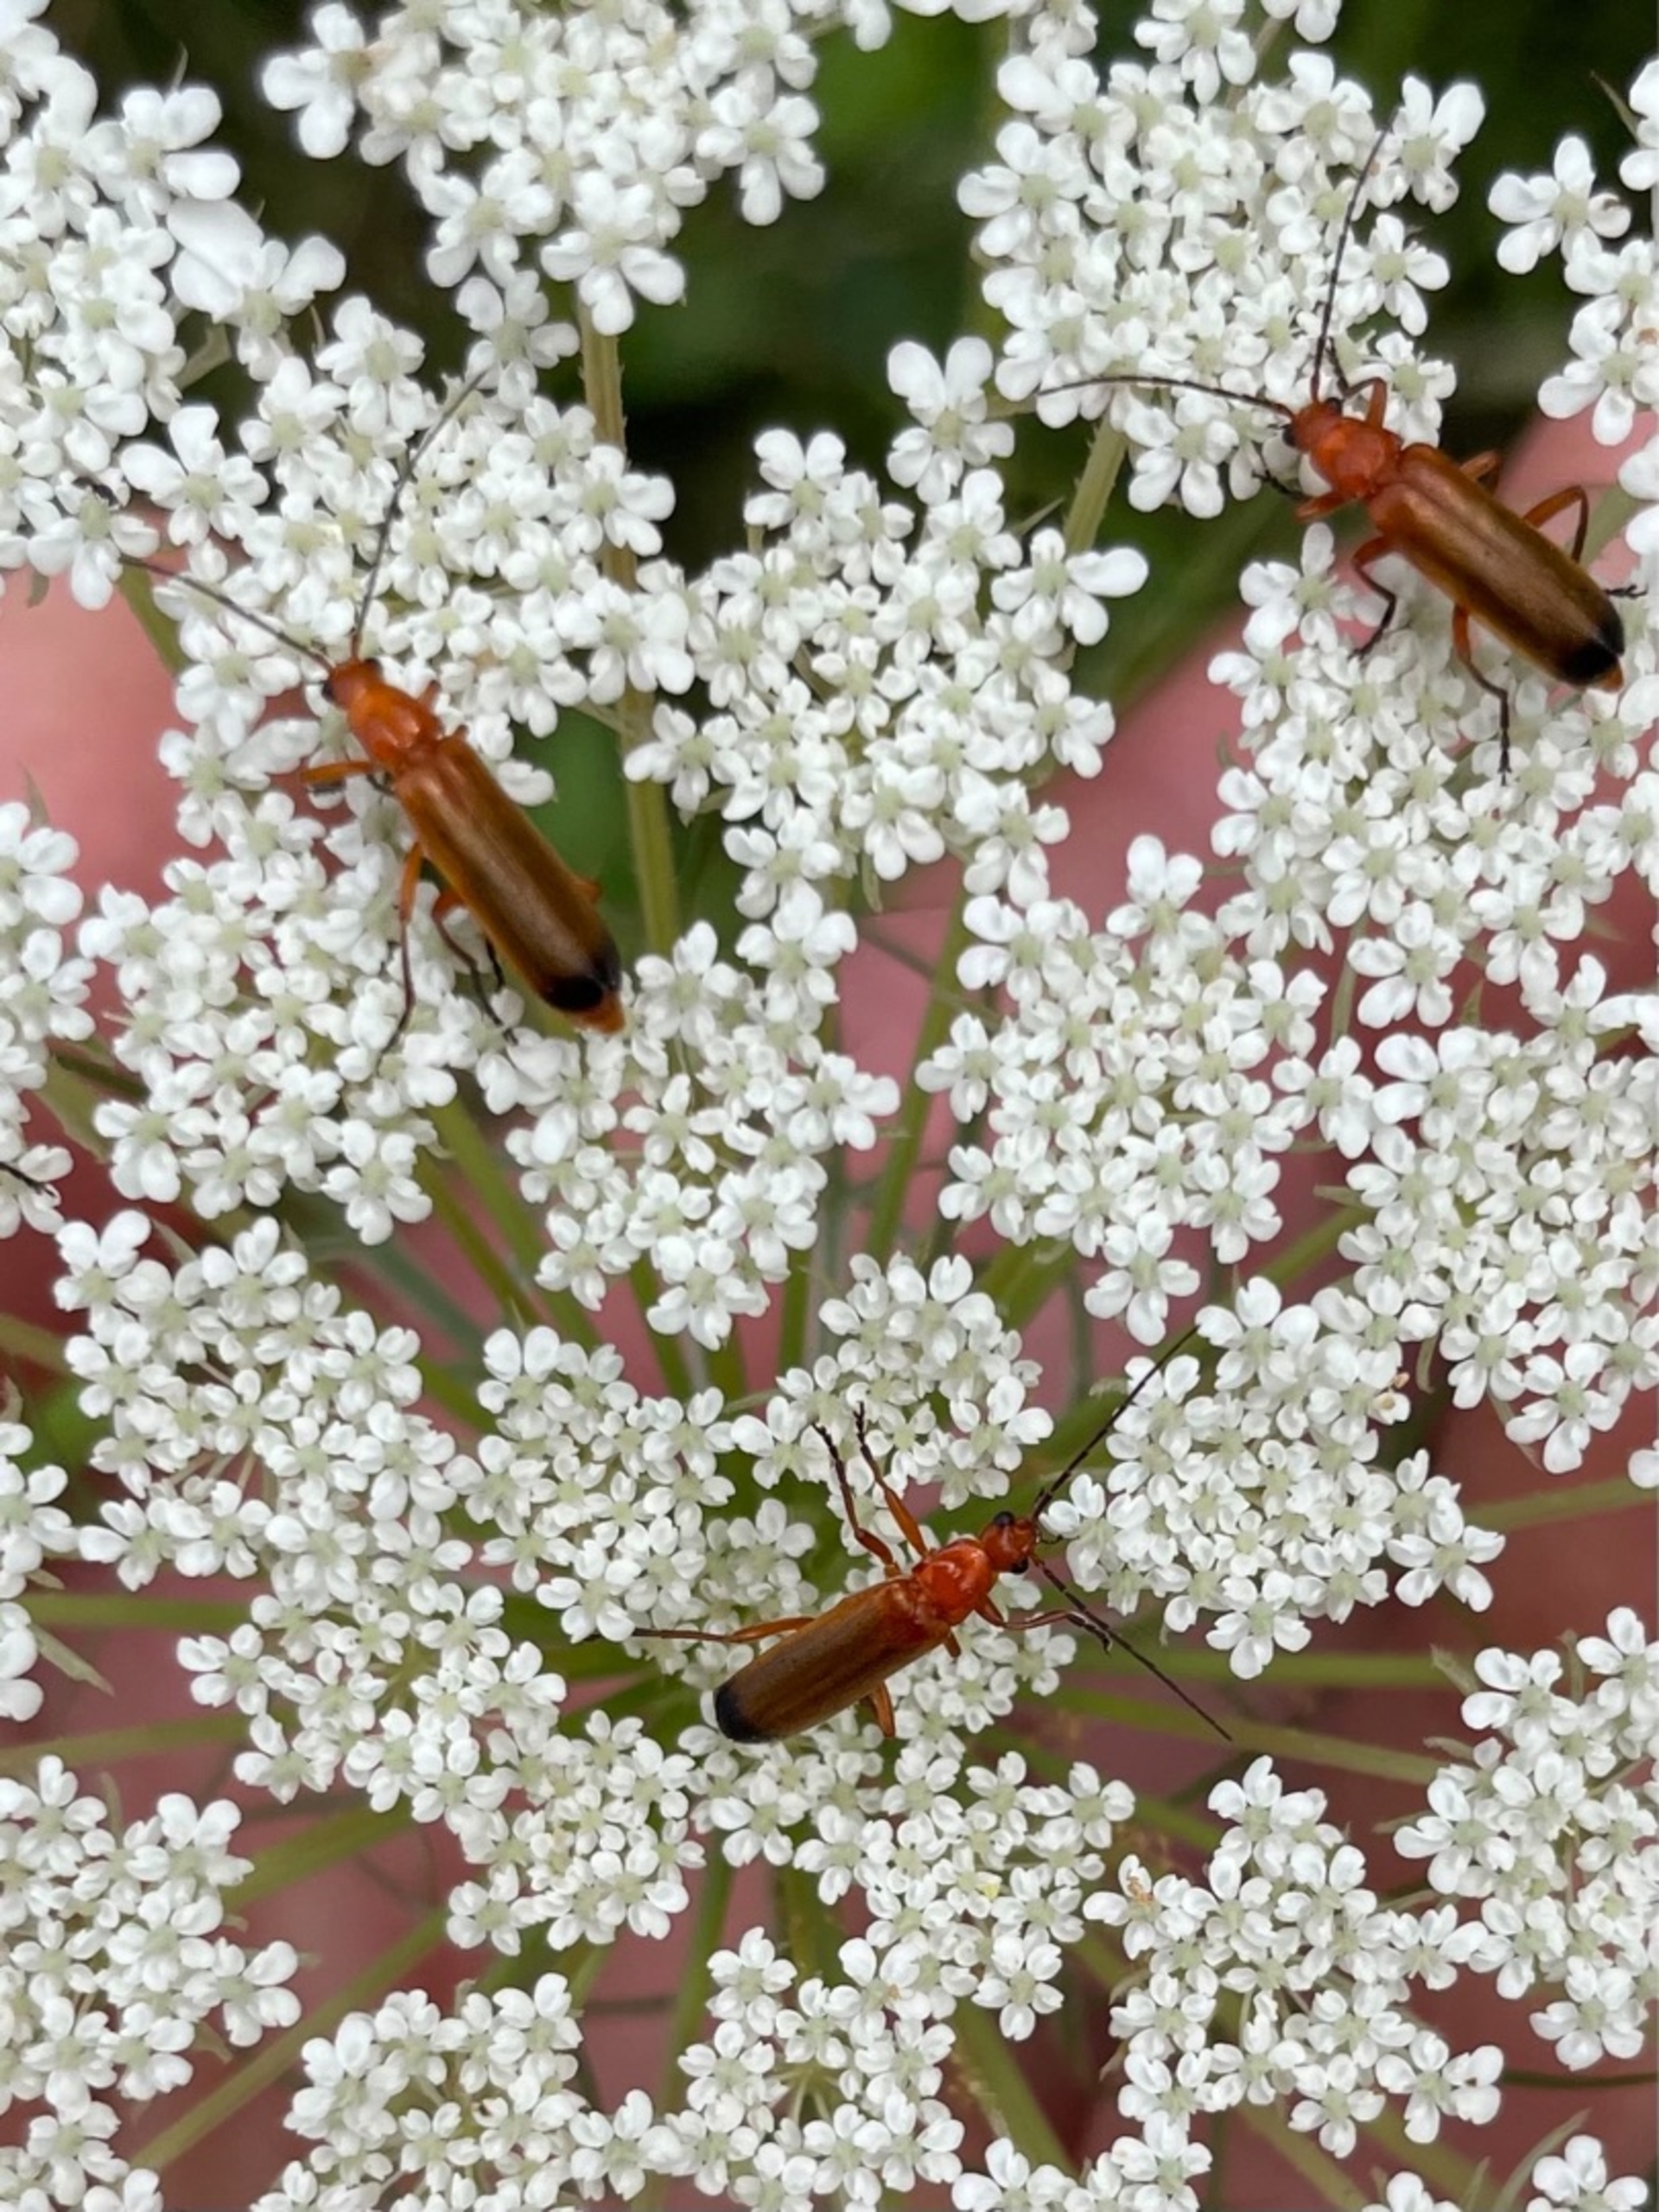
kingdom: Animalia
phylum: Arthropoda
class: Insecta
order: Coleoptera
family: Cantharidae
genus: Rhagonycha
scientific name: Rhagonycha fulva
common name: Præstebille
